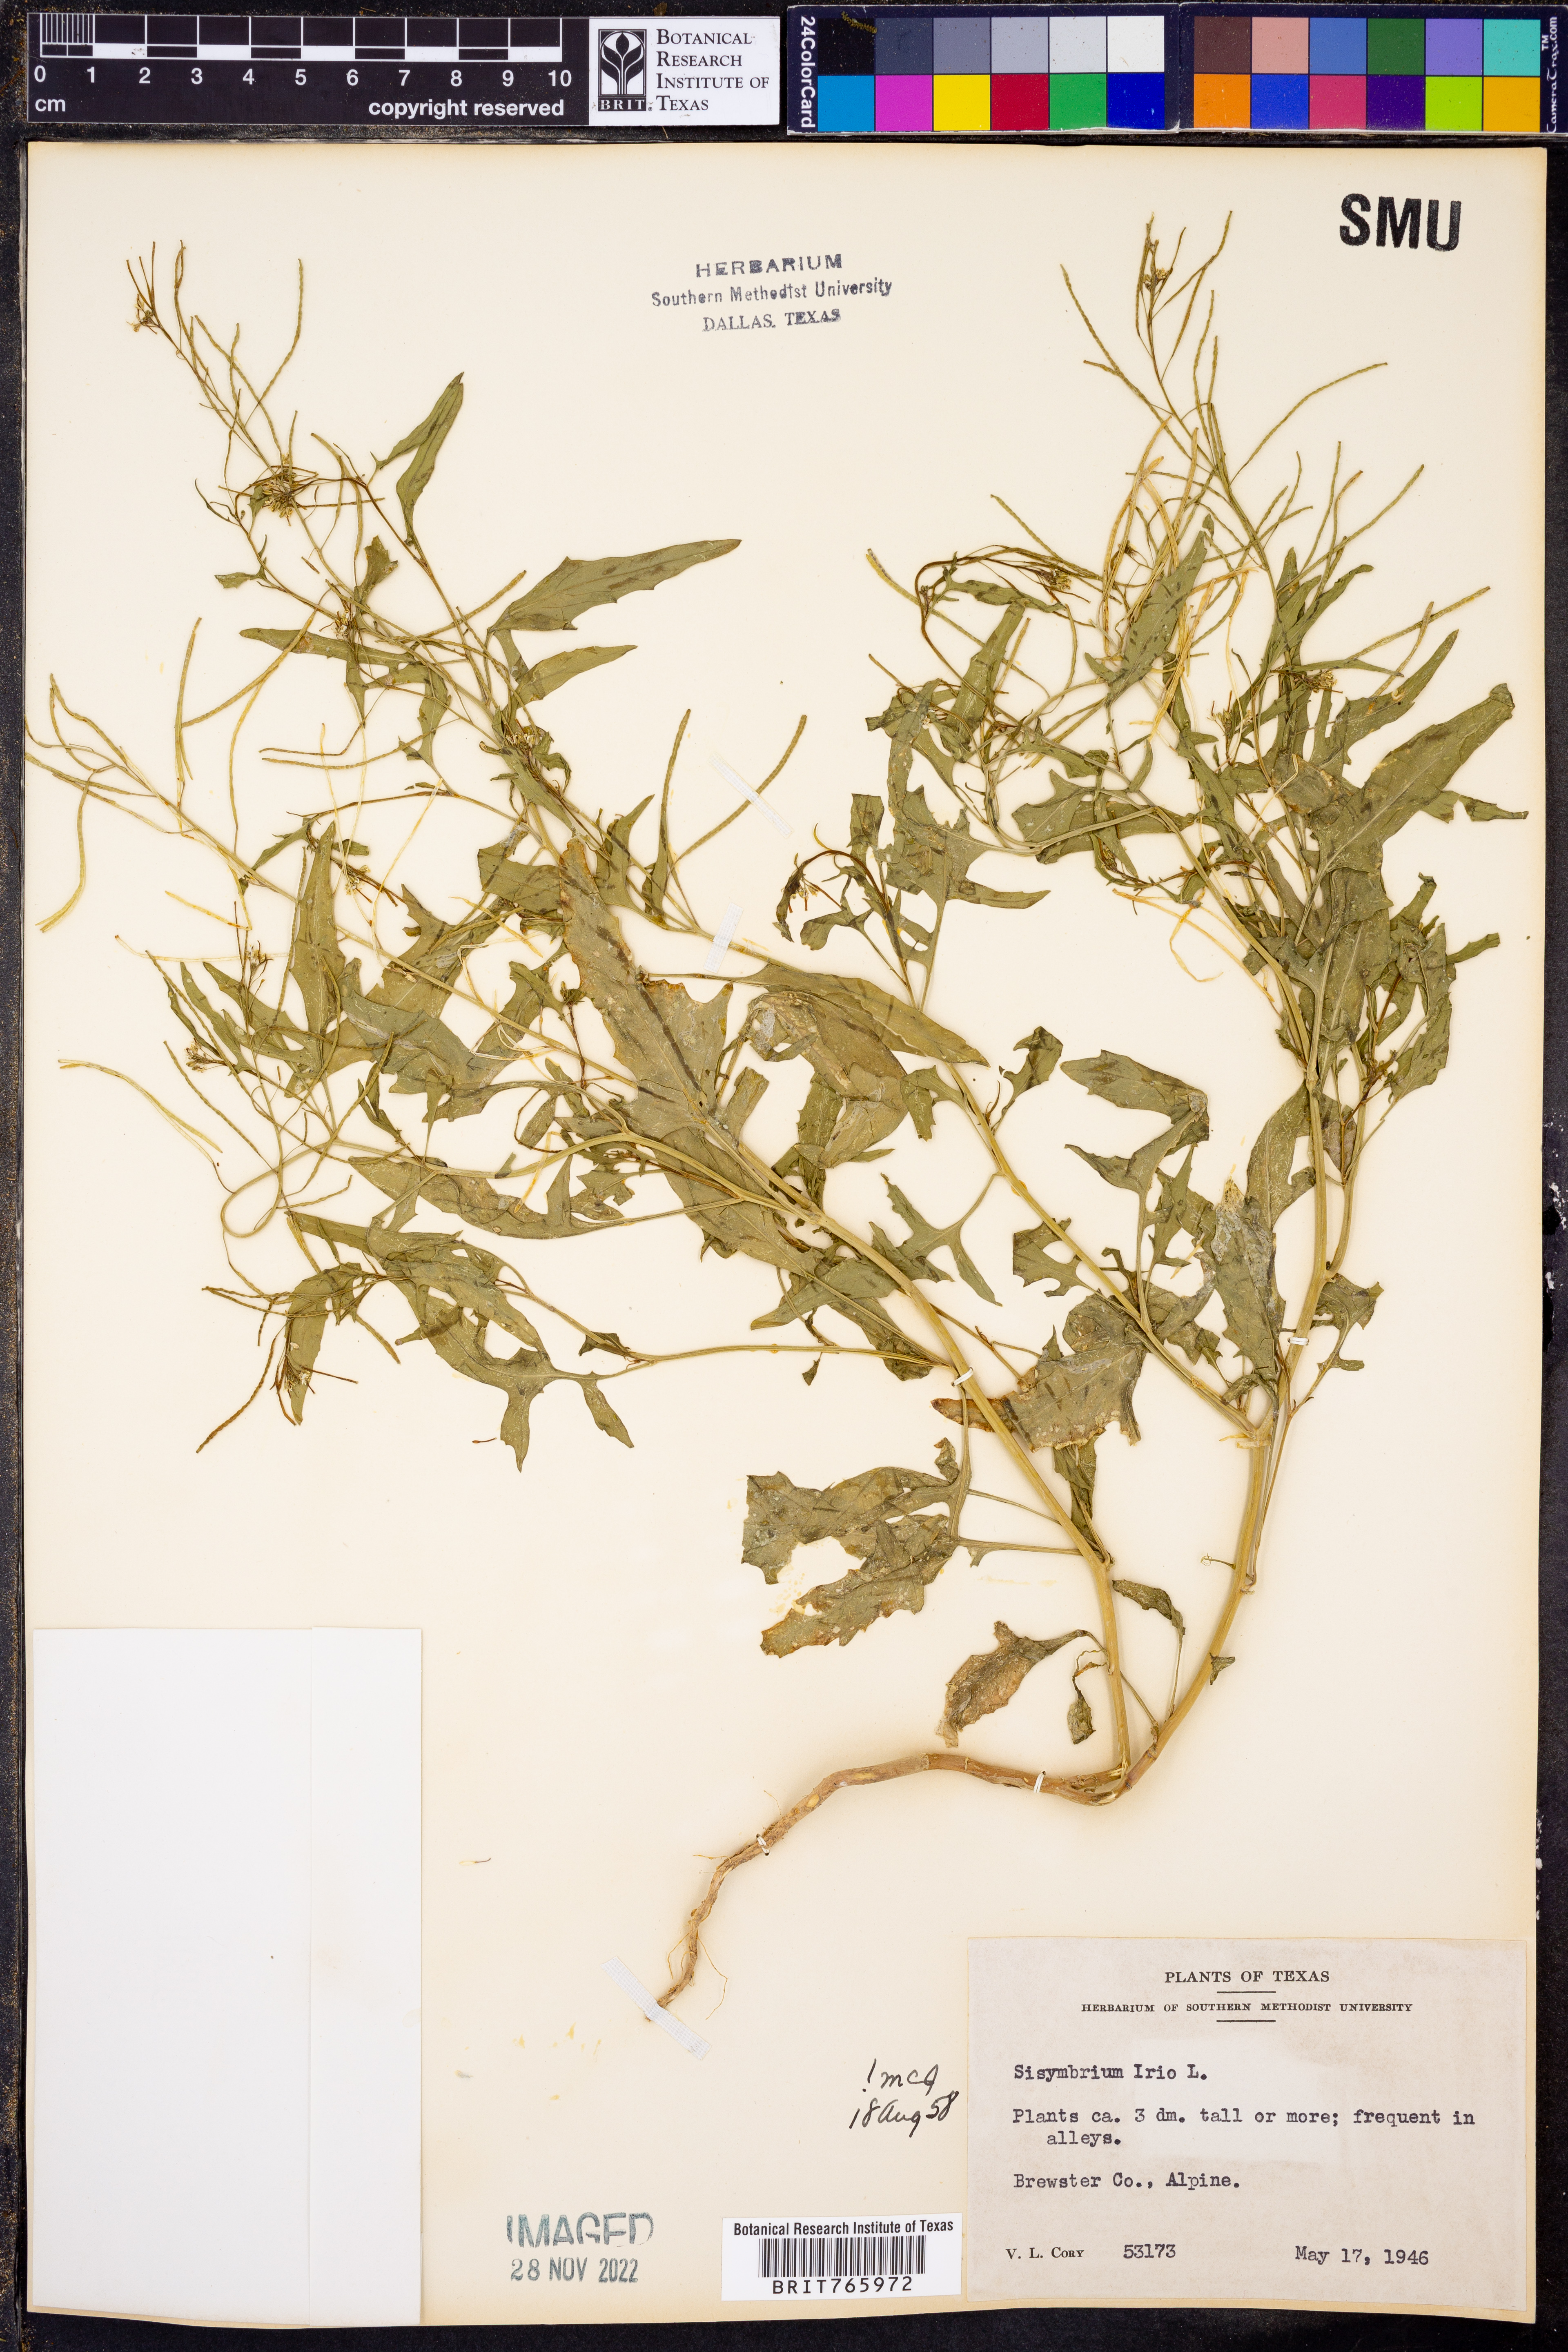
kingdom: Plantae
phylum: Tracheophyta
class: Magnoliopsida
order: Brassicales
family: Brassicaceae
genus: Sisymbrium
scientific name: Sisymbrium
